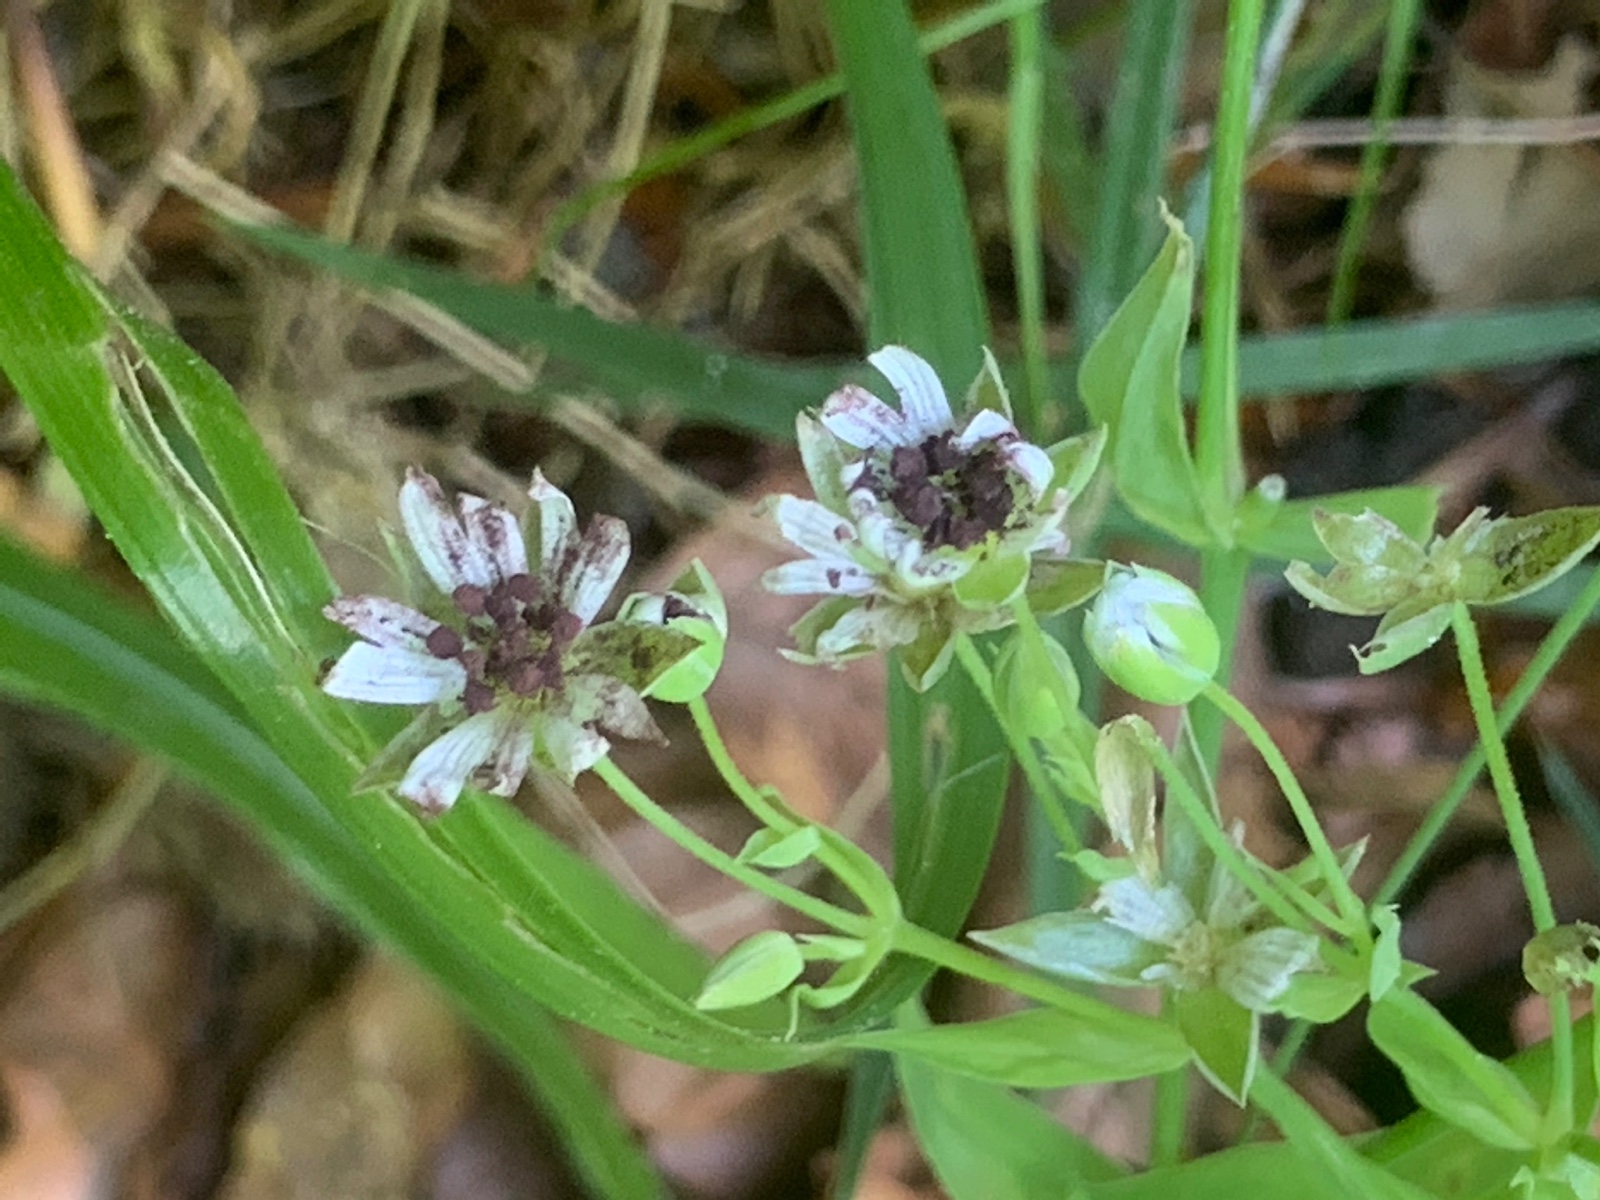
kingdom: Fungi
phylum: Basidiomycota
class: Microbotryomycetes
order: Microbotryales
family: Microbotryaceae
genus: Microbotryum
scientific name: Microbotryum stellariae
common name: fladstjerne-støvbladrust
